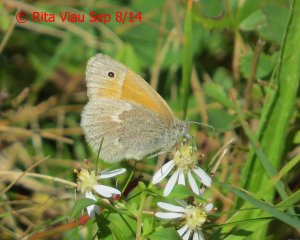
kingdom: Animalia
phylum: Arthropoda
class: Insecta
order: Lepidoptera
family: Nymphalidae
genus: Coenonympha
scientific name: Coenonympha tullia
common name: Large Heath
